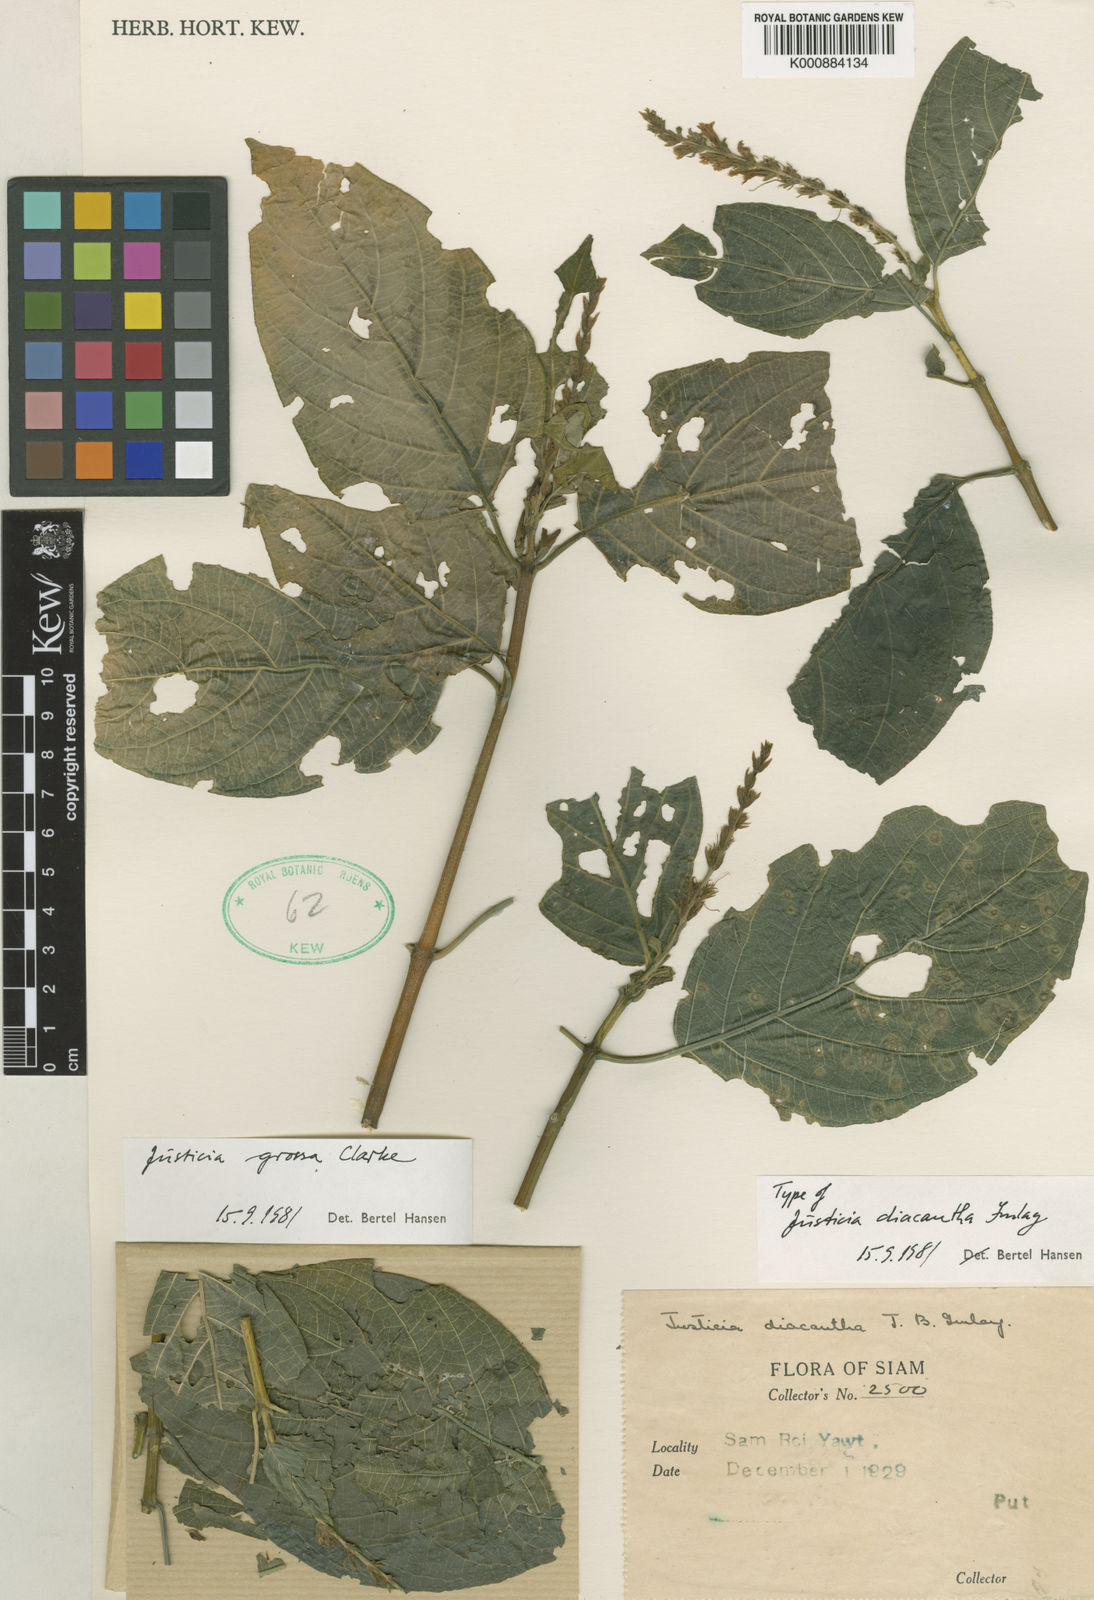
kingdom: Plantae
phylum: Tracheophyta
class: Magnoliopsida
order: Lamiales
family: Acanthaceae
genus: Ecbolium
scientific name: Ecbolium grossum
